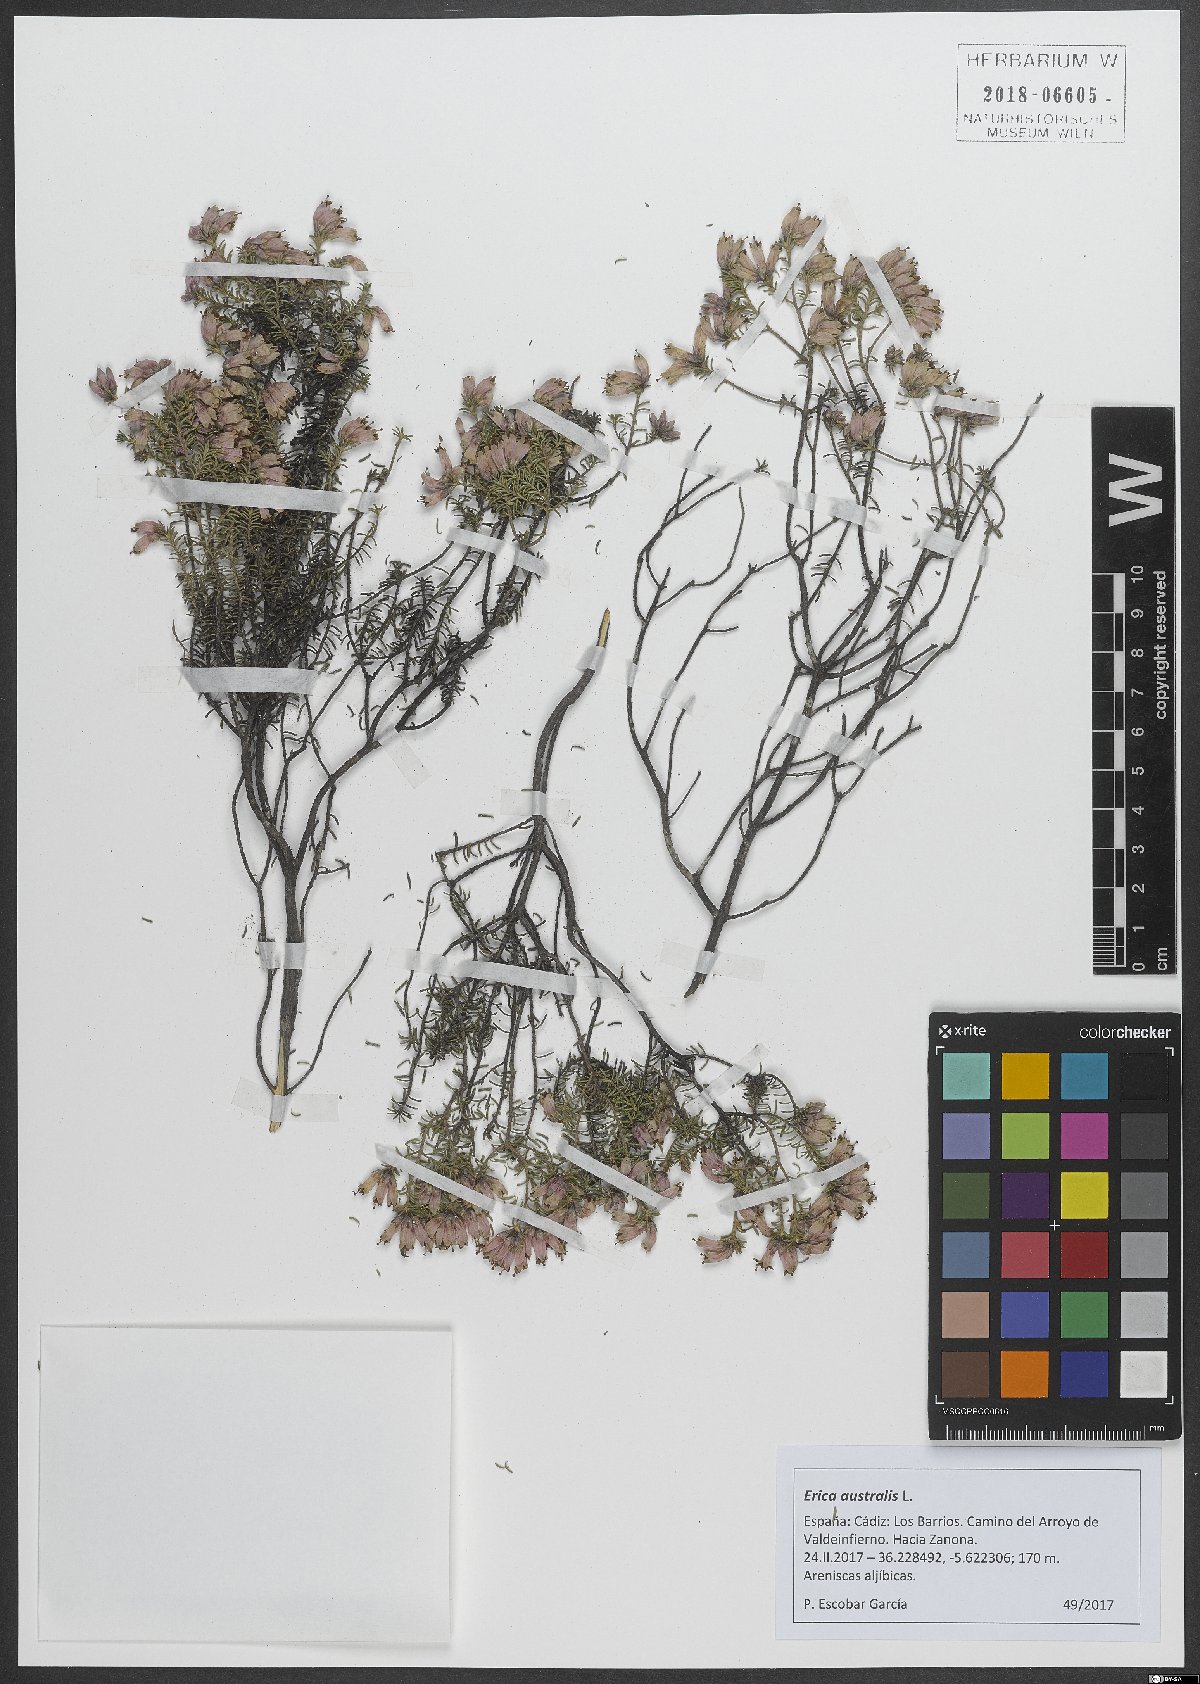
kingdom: Plantae
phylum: Tracheophyta
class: Magnoliopsida
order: Ericales
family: Ericaceae
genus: Erica
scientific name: Erica australis
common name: Spanish heath
